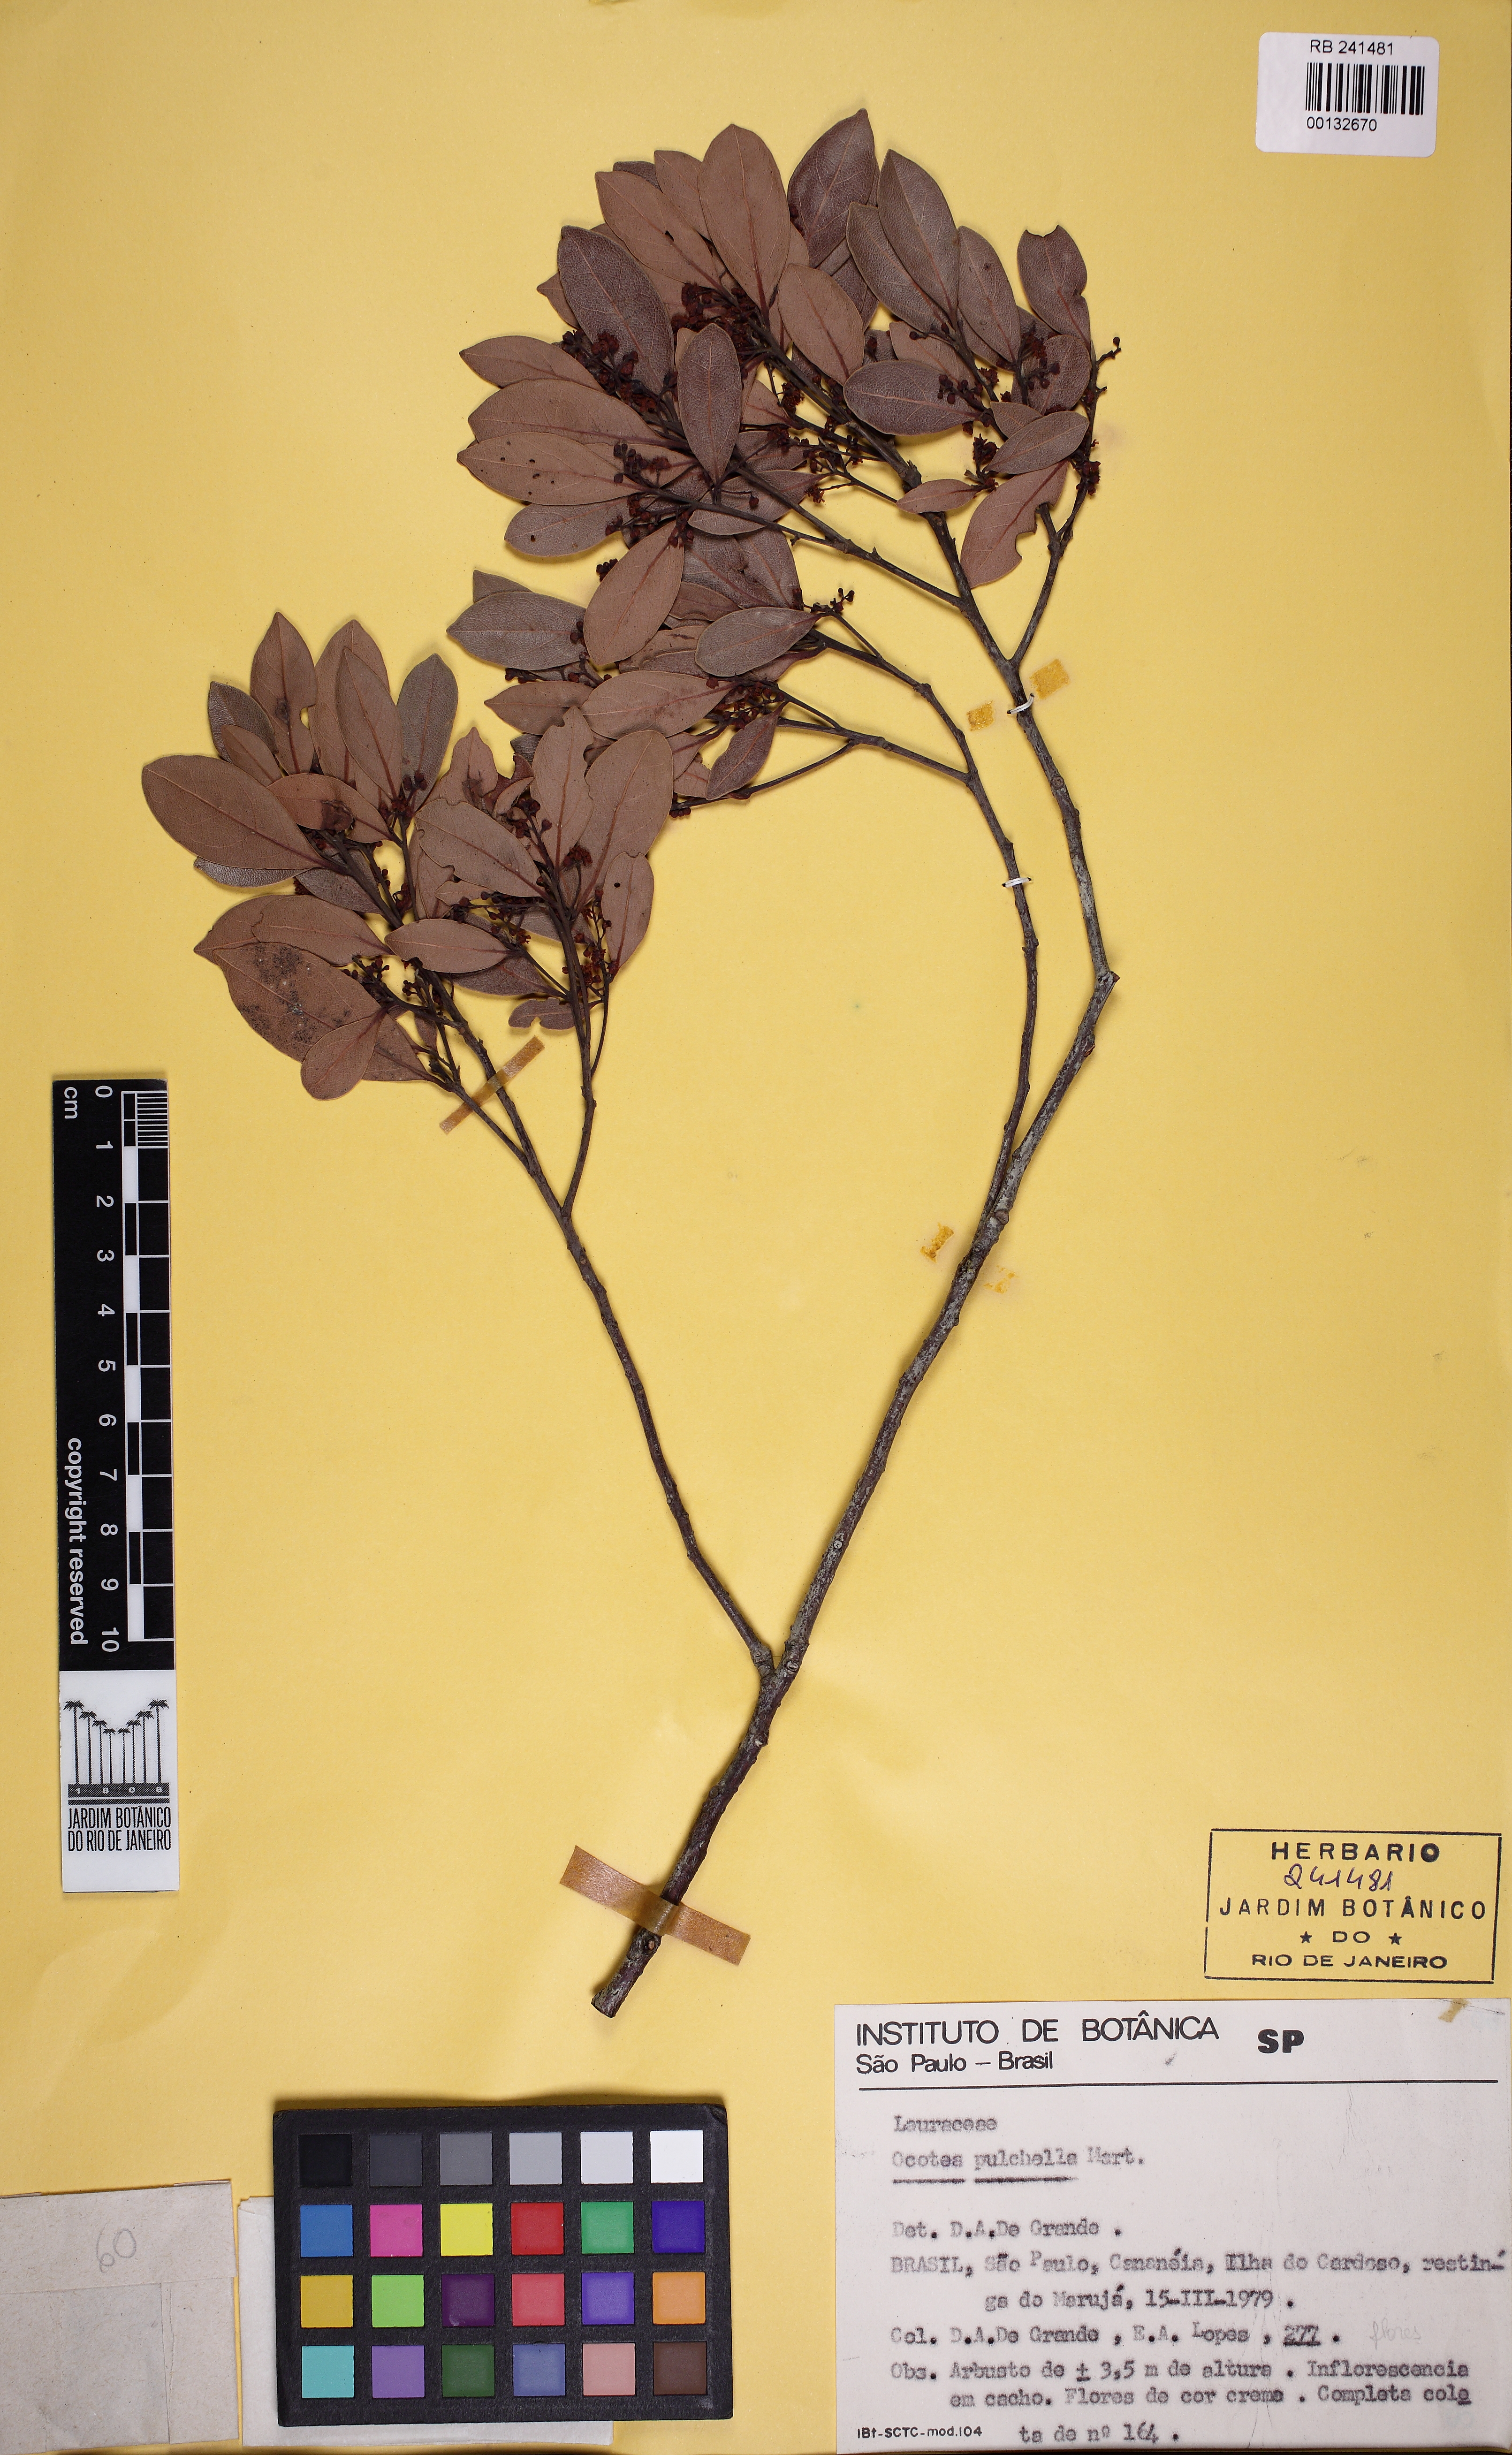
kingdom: Plantae
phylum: Tracheophyta
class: Magnoliopsida
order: Laurales
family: Lauraceae
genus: Mespilodaphne
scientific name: Mespilodaphne pulchella
